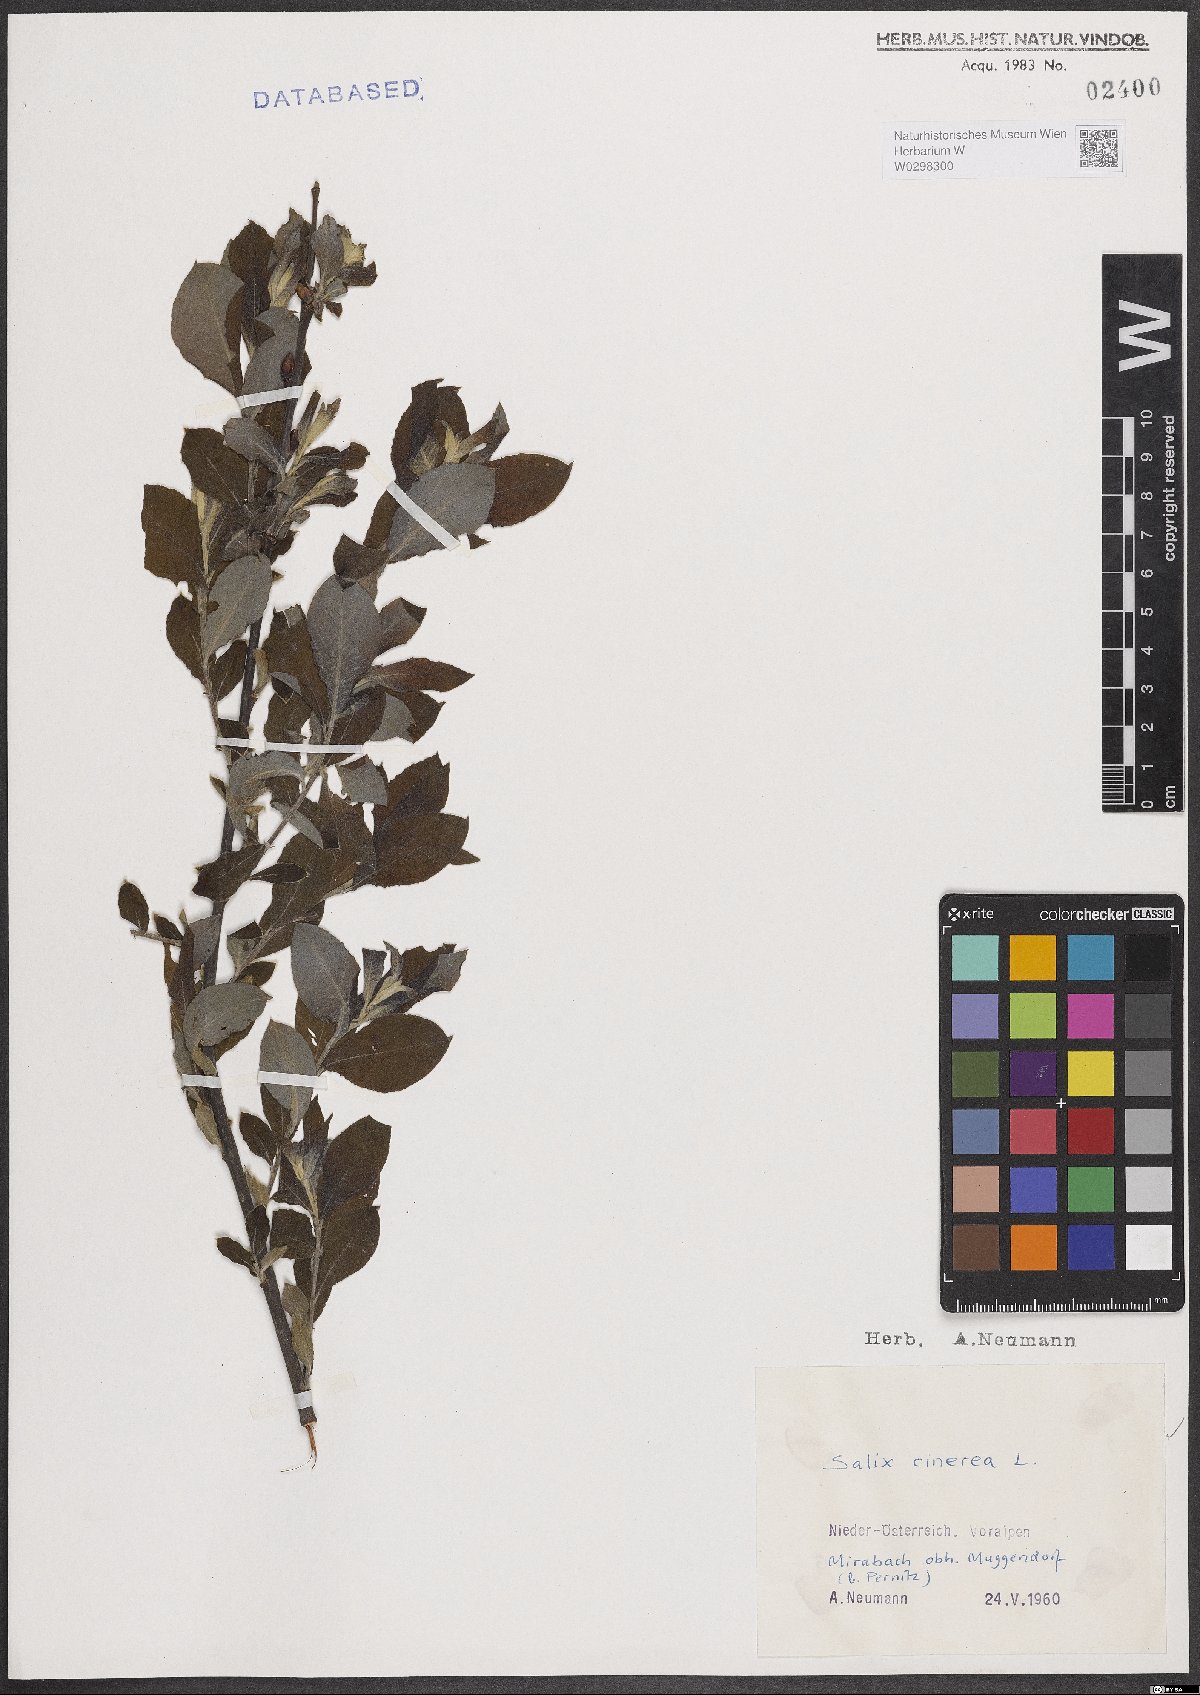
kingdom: Plantae
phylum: Tracheophyta
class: Magnoliopsida
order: Malpighiales
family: Salicaceae
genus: Salix
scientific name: Salix cinerea
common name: Common sallow
